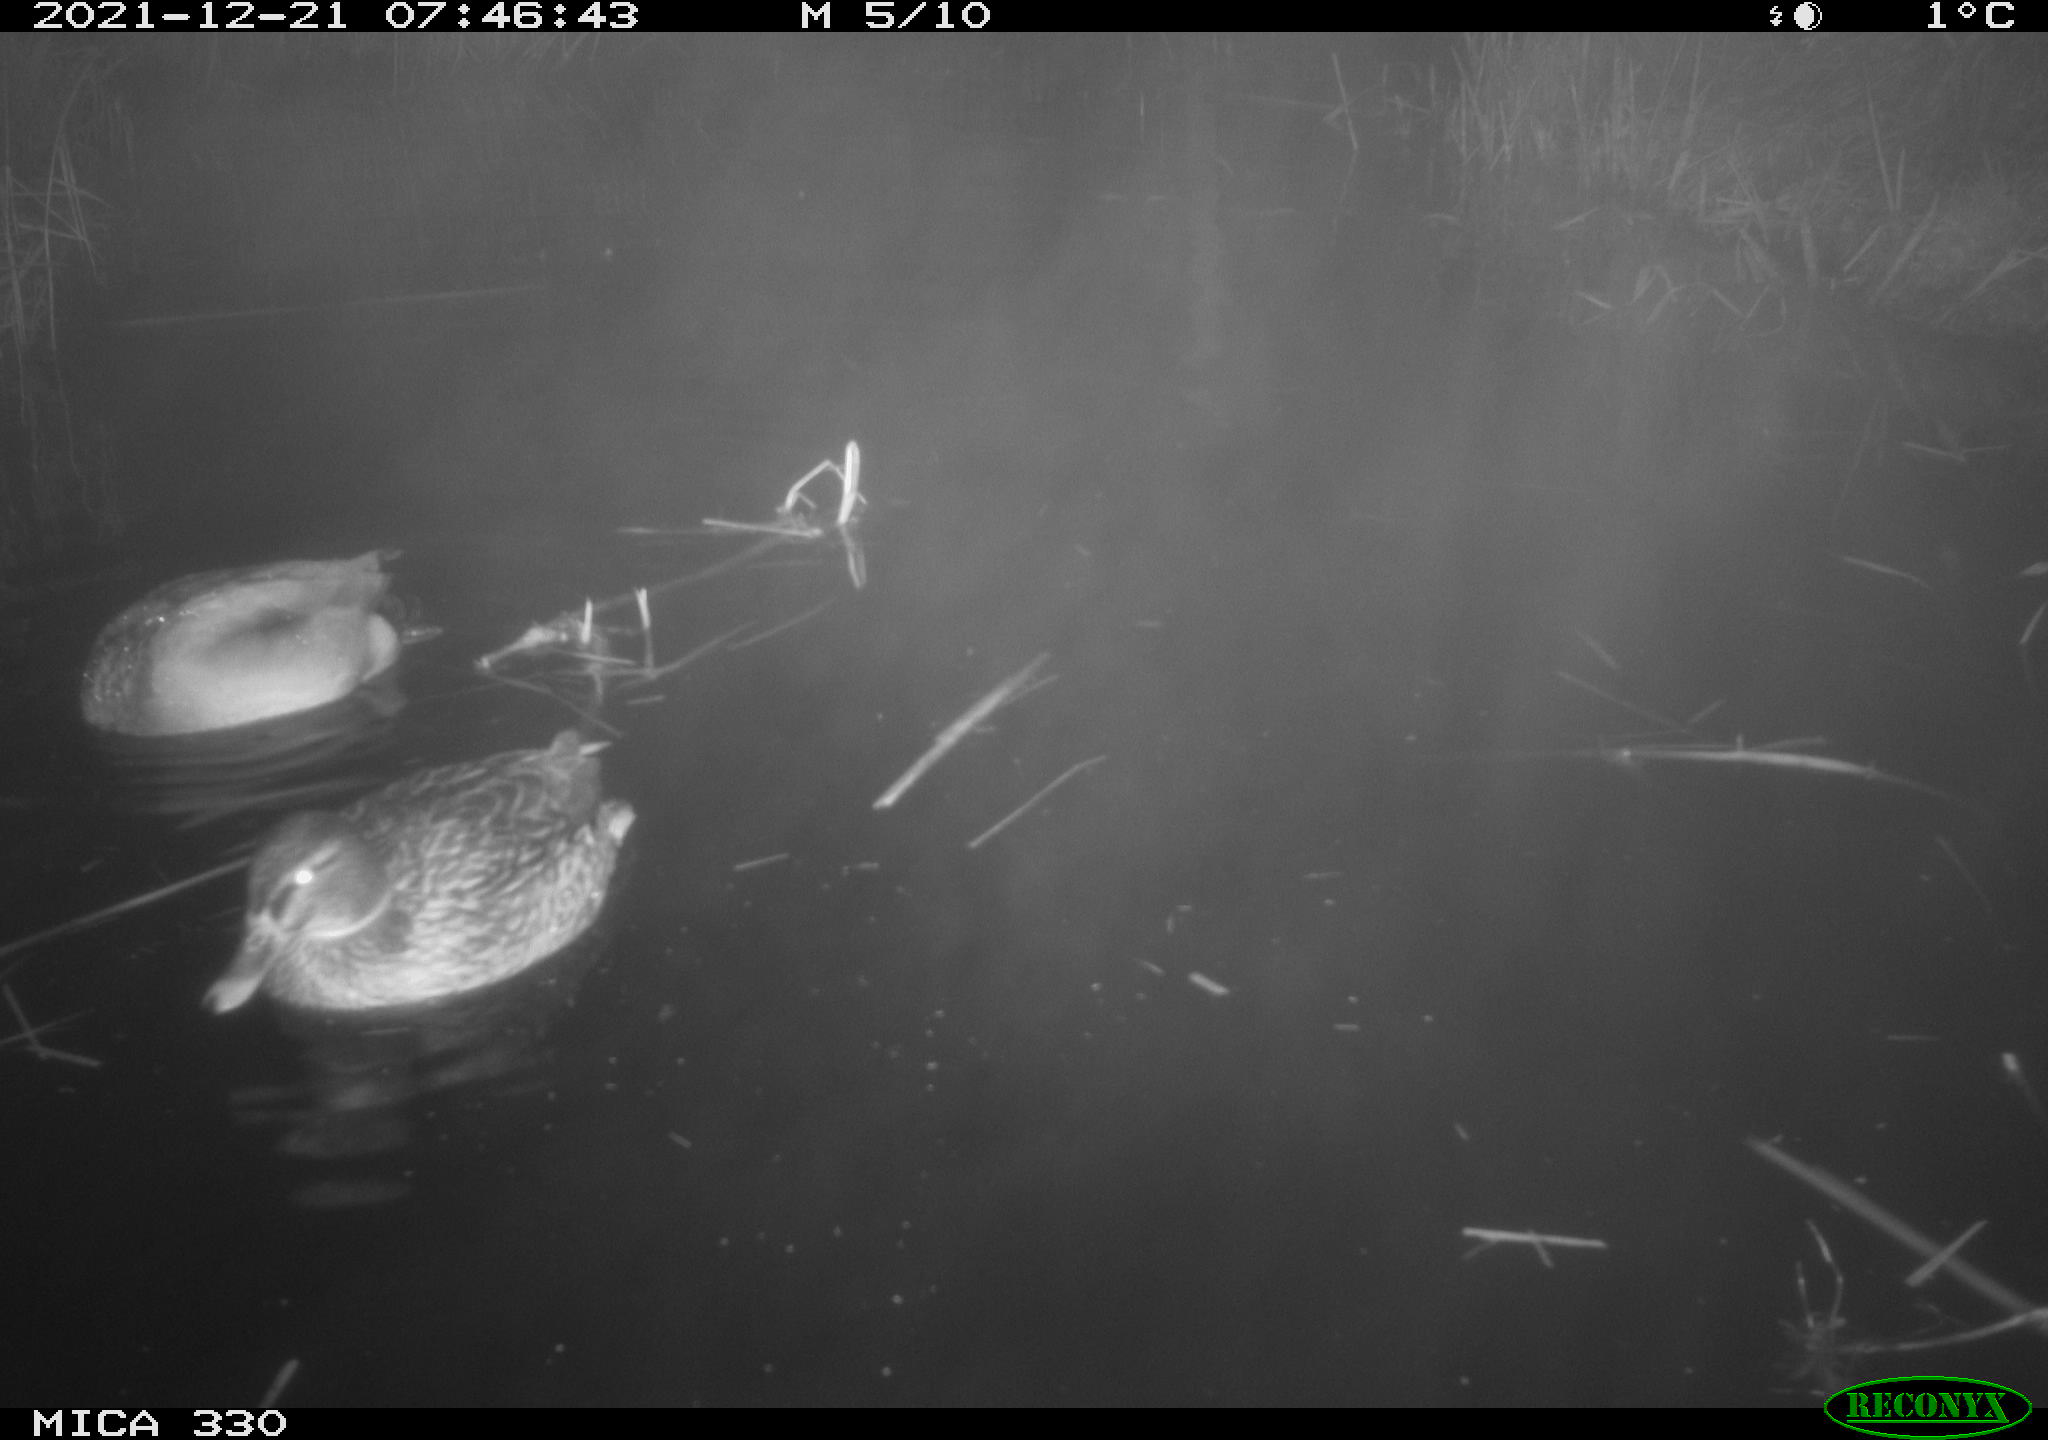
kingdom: Animalia
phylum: Chordata
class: Aves
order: Anseriformes
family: Anatidae
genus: Anas
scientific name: Anas platyrhynchos
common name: Mallard
